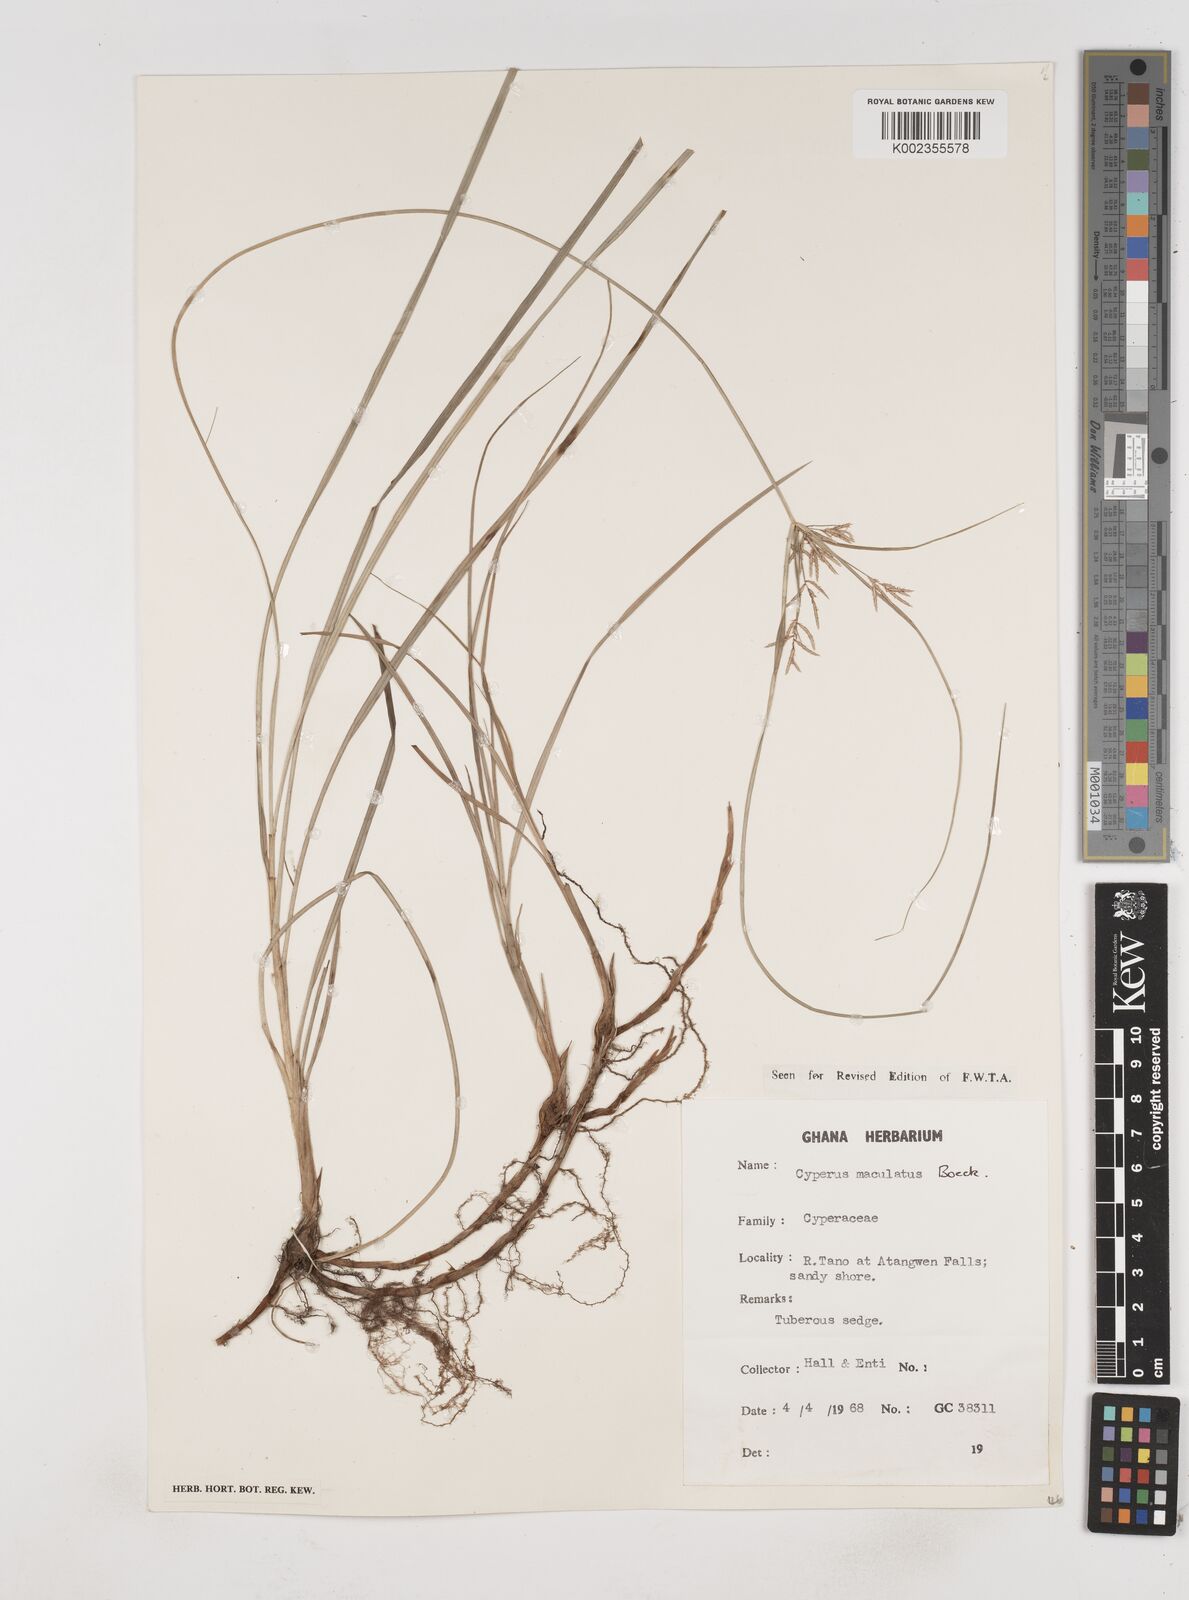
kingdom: Plantae
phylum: Tracheophyta
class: Liliopsida
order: Poales
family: Cyperaceae
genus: Cyperus
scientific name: Cyperus maculatus
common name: Maculated sedge
